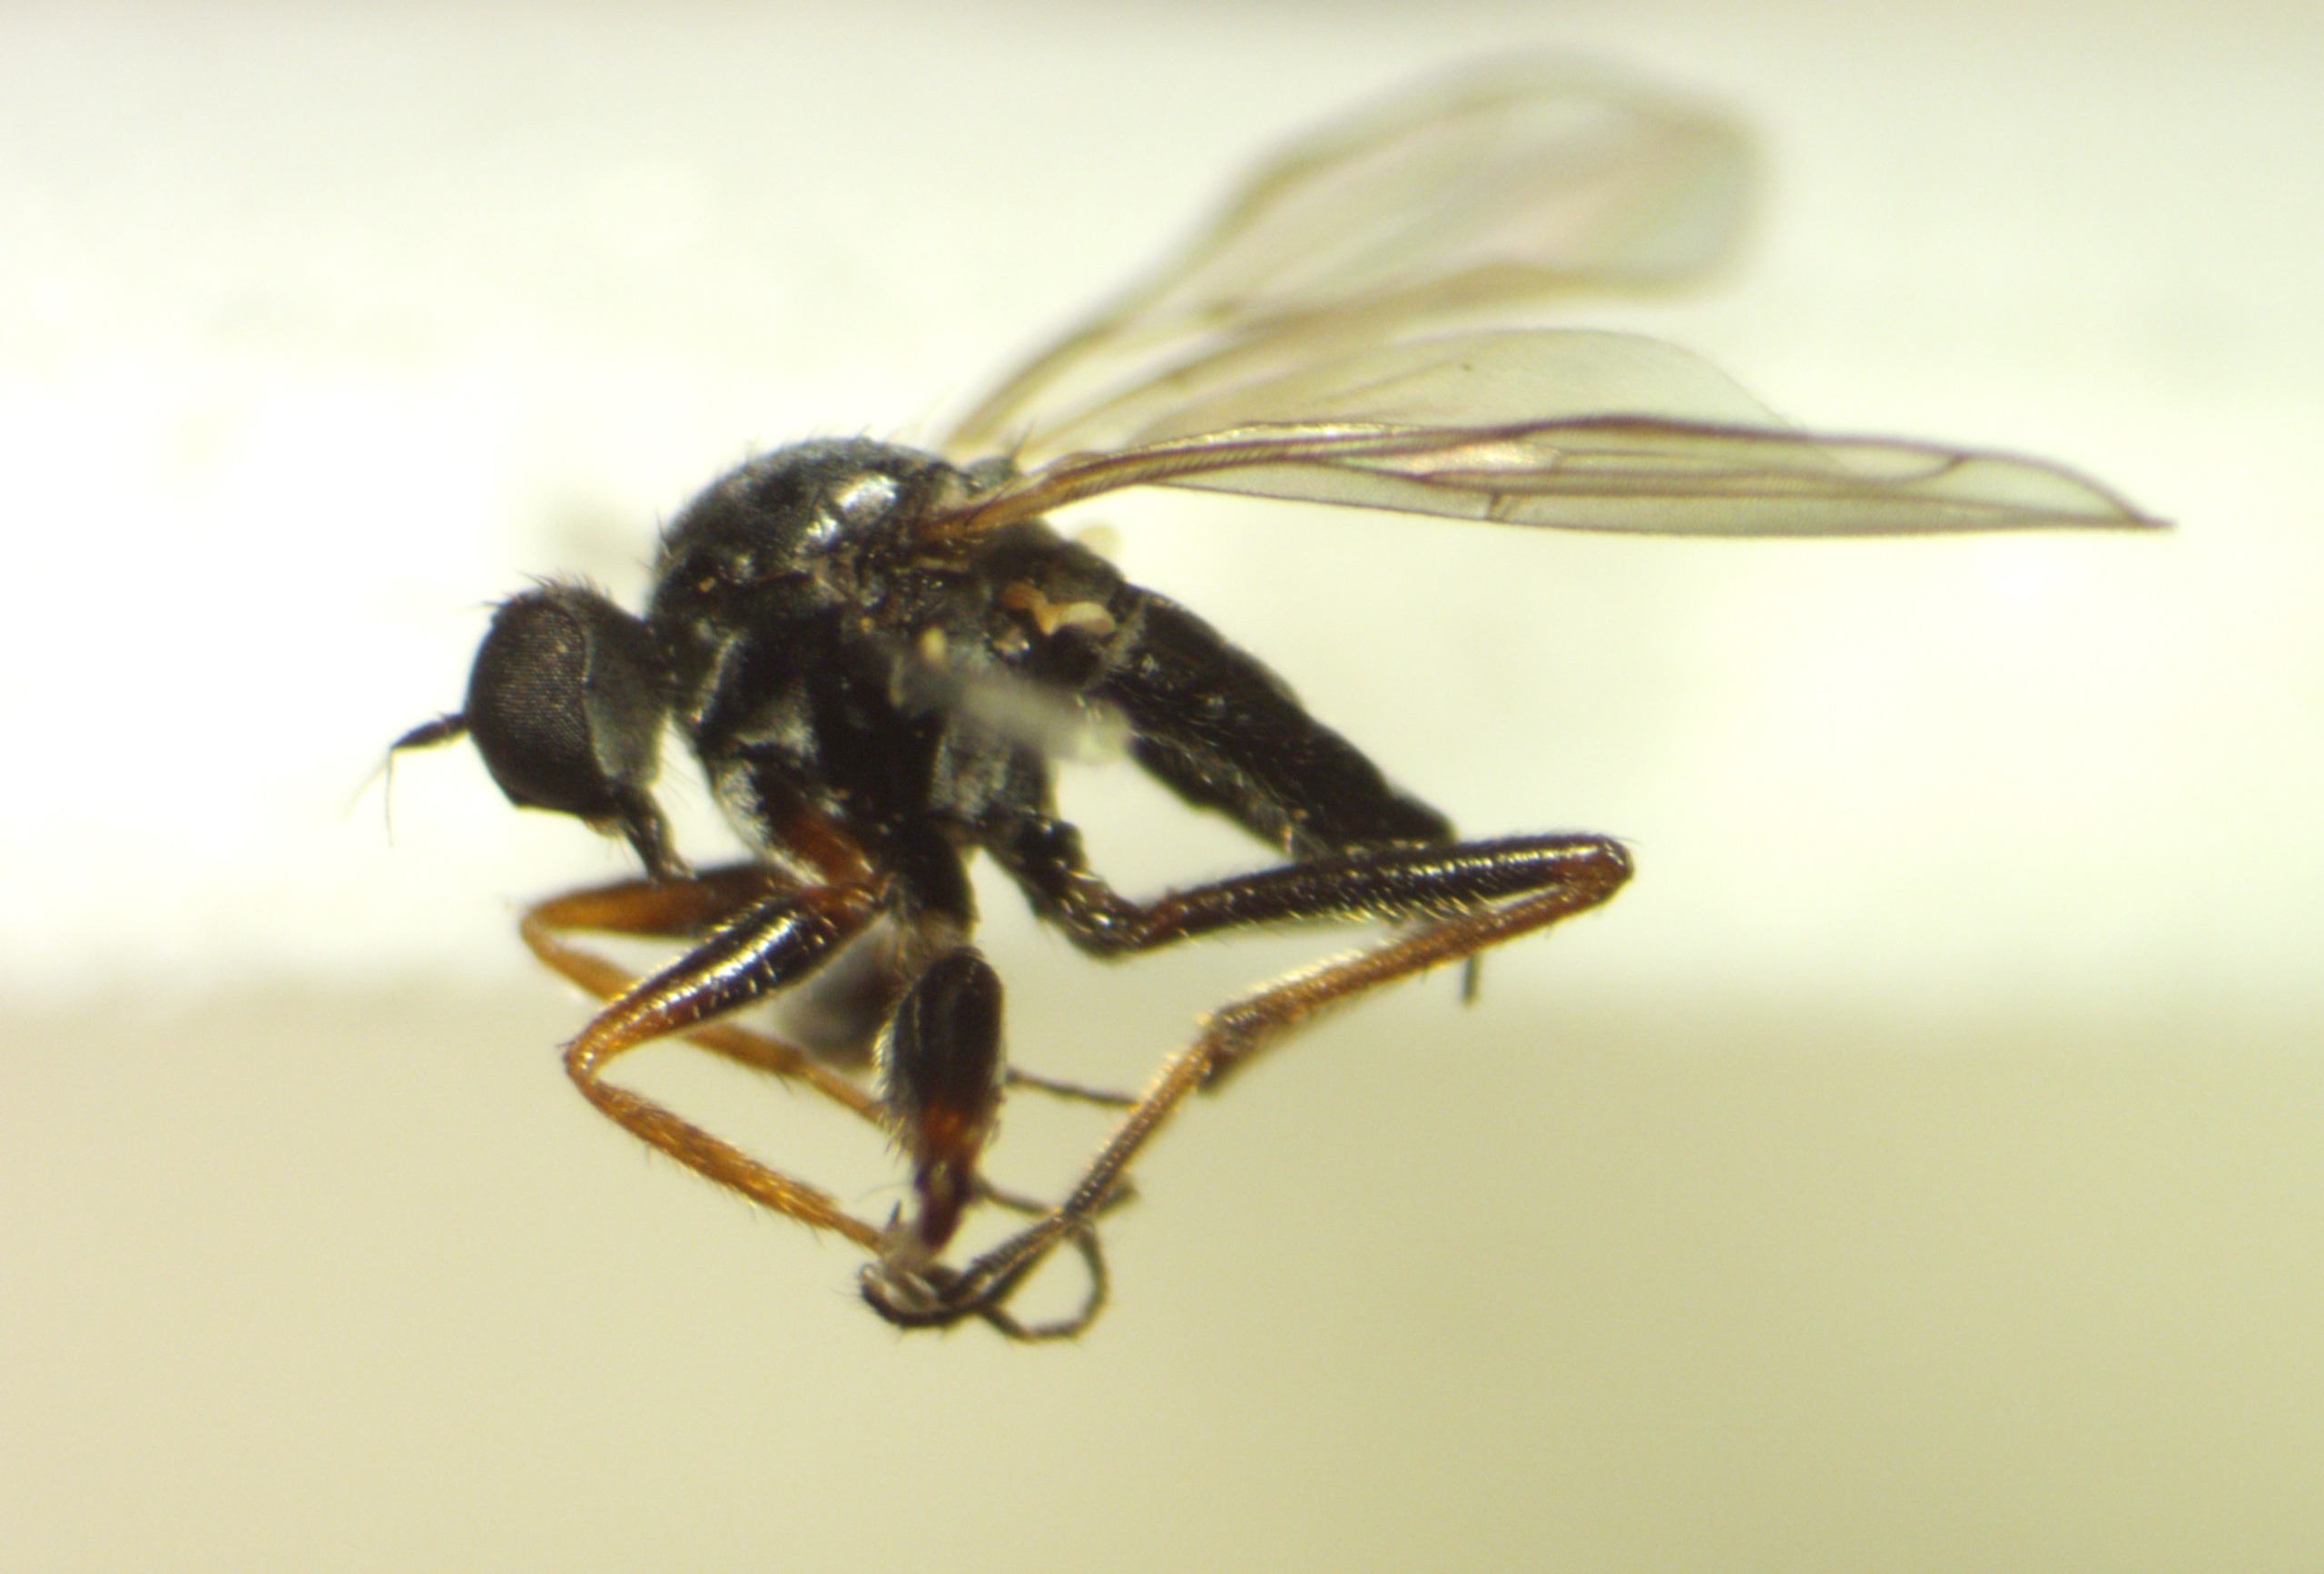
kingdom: Animalia
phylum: Arthropoda
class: Insecta
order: Diptera
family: Hybotidae
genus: Platypalpus
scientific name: Platypalpus agilis
